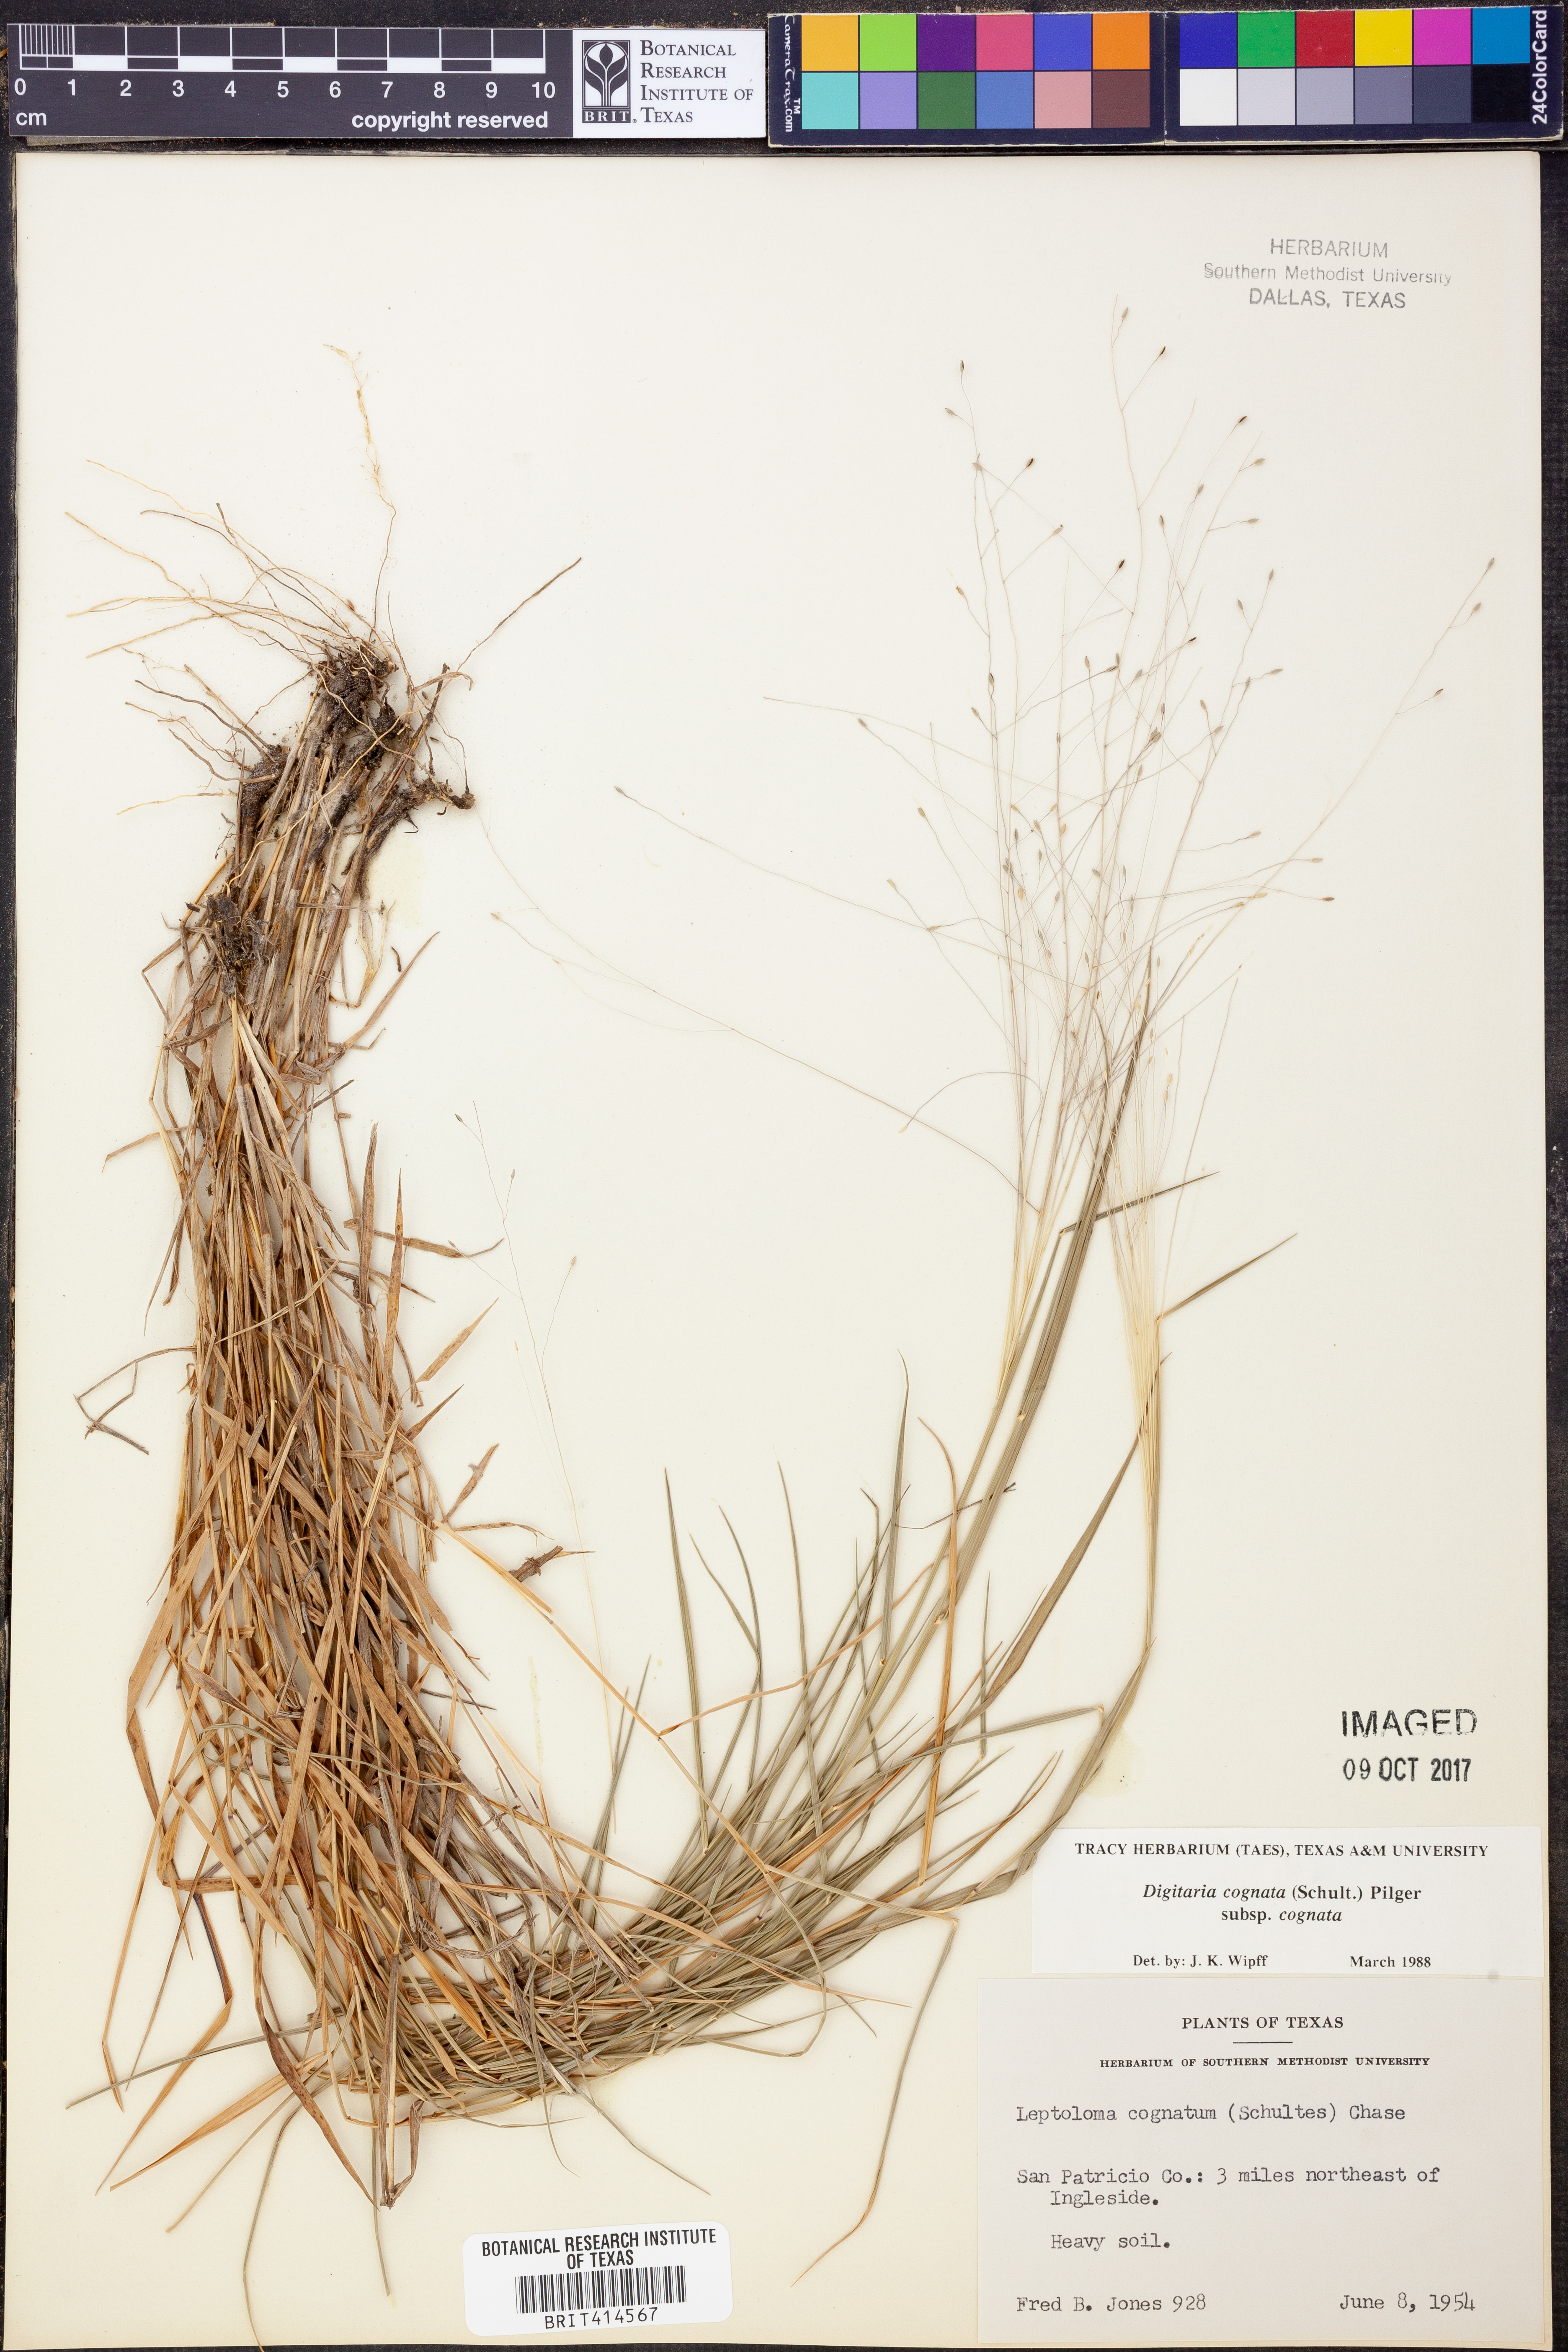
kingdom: Plantae
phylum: Tracheophyta
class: Liliopsida
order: Poales
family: Poaceae
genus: Digitaria
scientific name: Digitaria cognata
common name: Fall witchgrass
